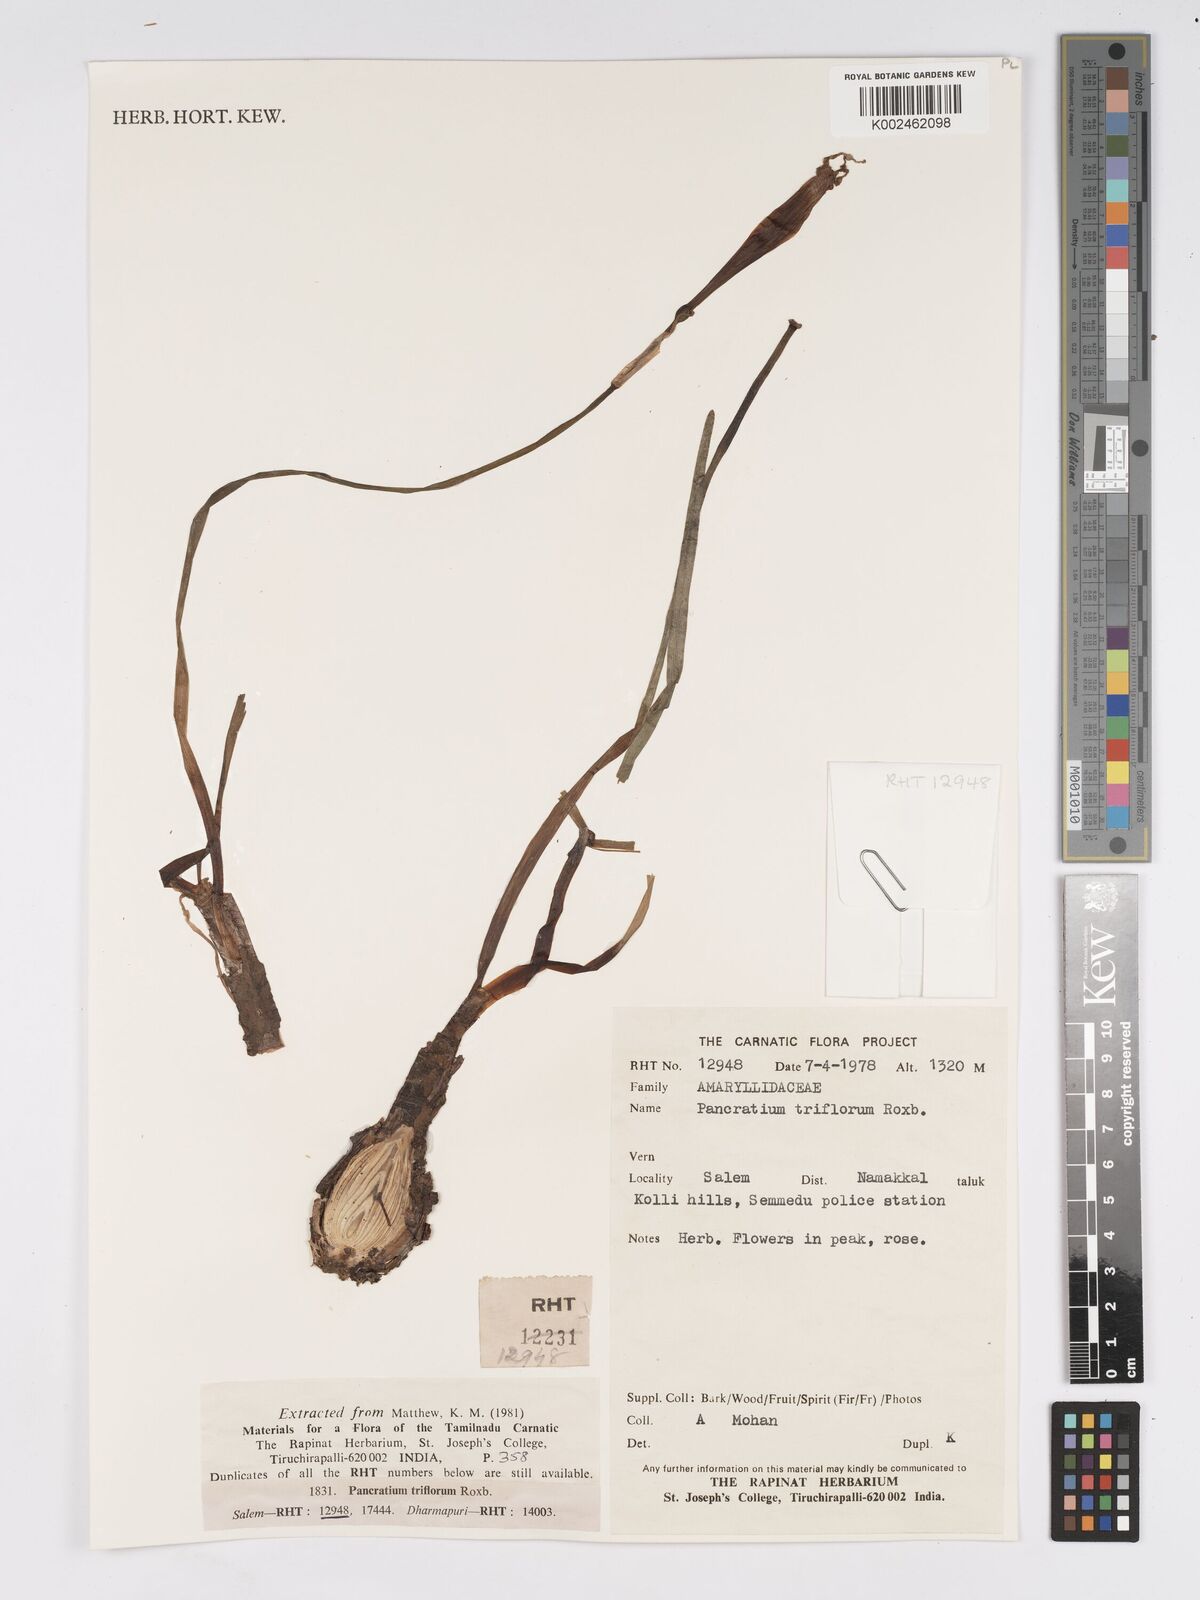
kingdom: Plantae
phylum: Tracheophyta
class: Liliopsida
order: Asparagales
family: Amaryllidaceae
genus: Pancratium
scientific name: Pancratium triflorum
